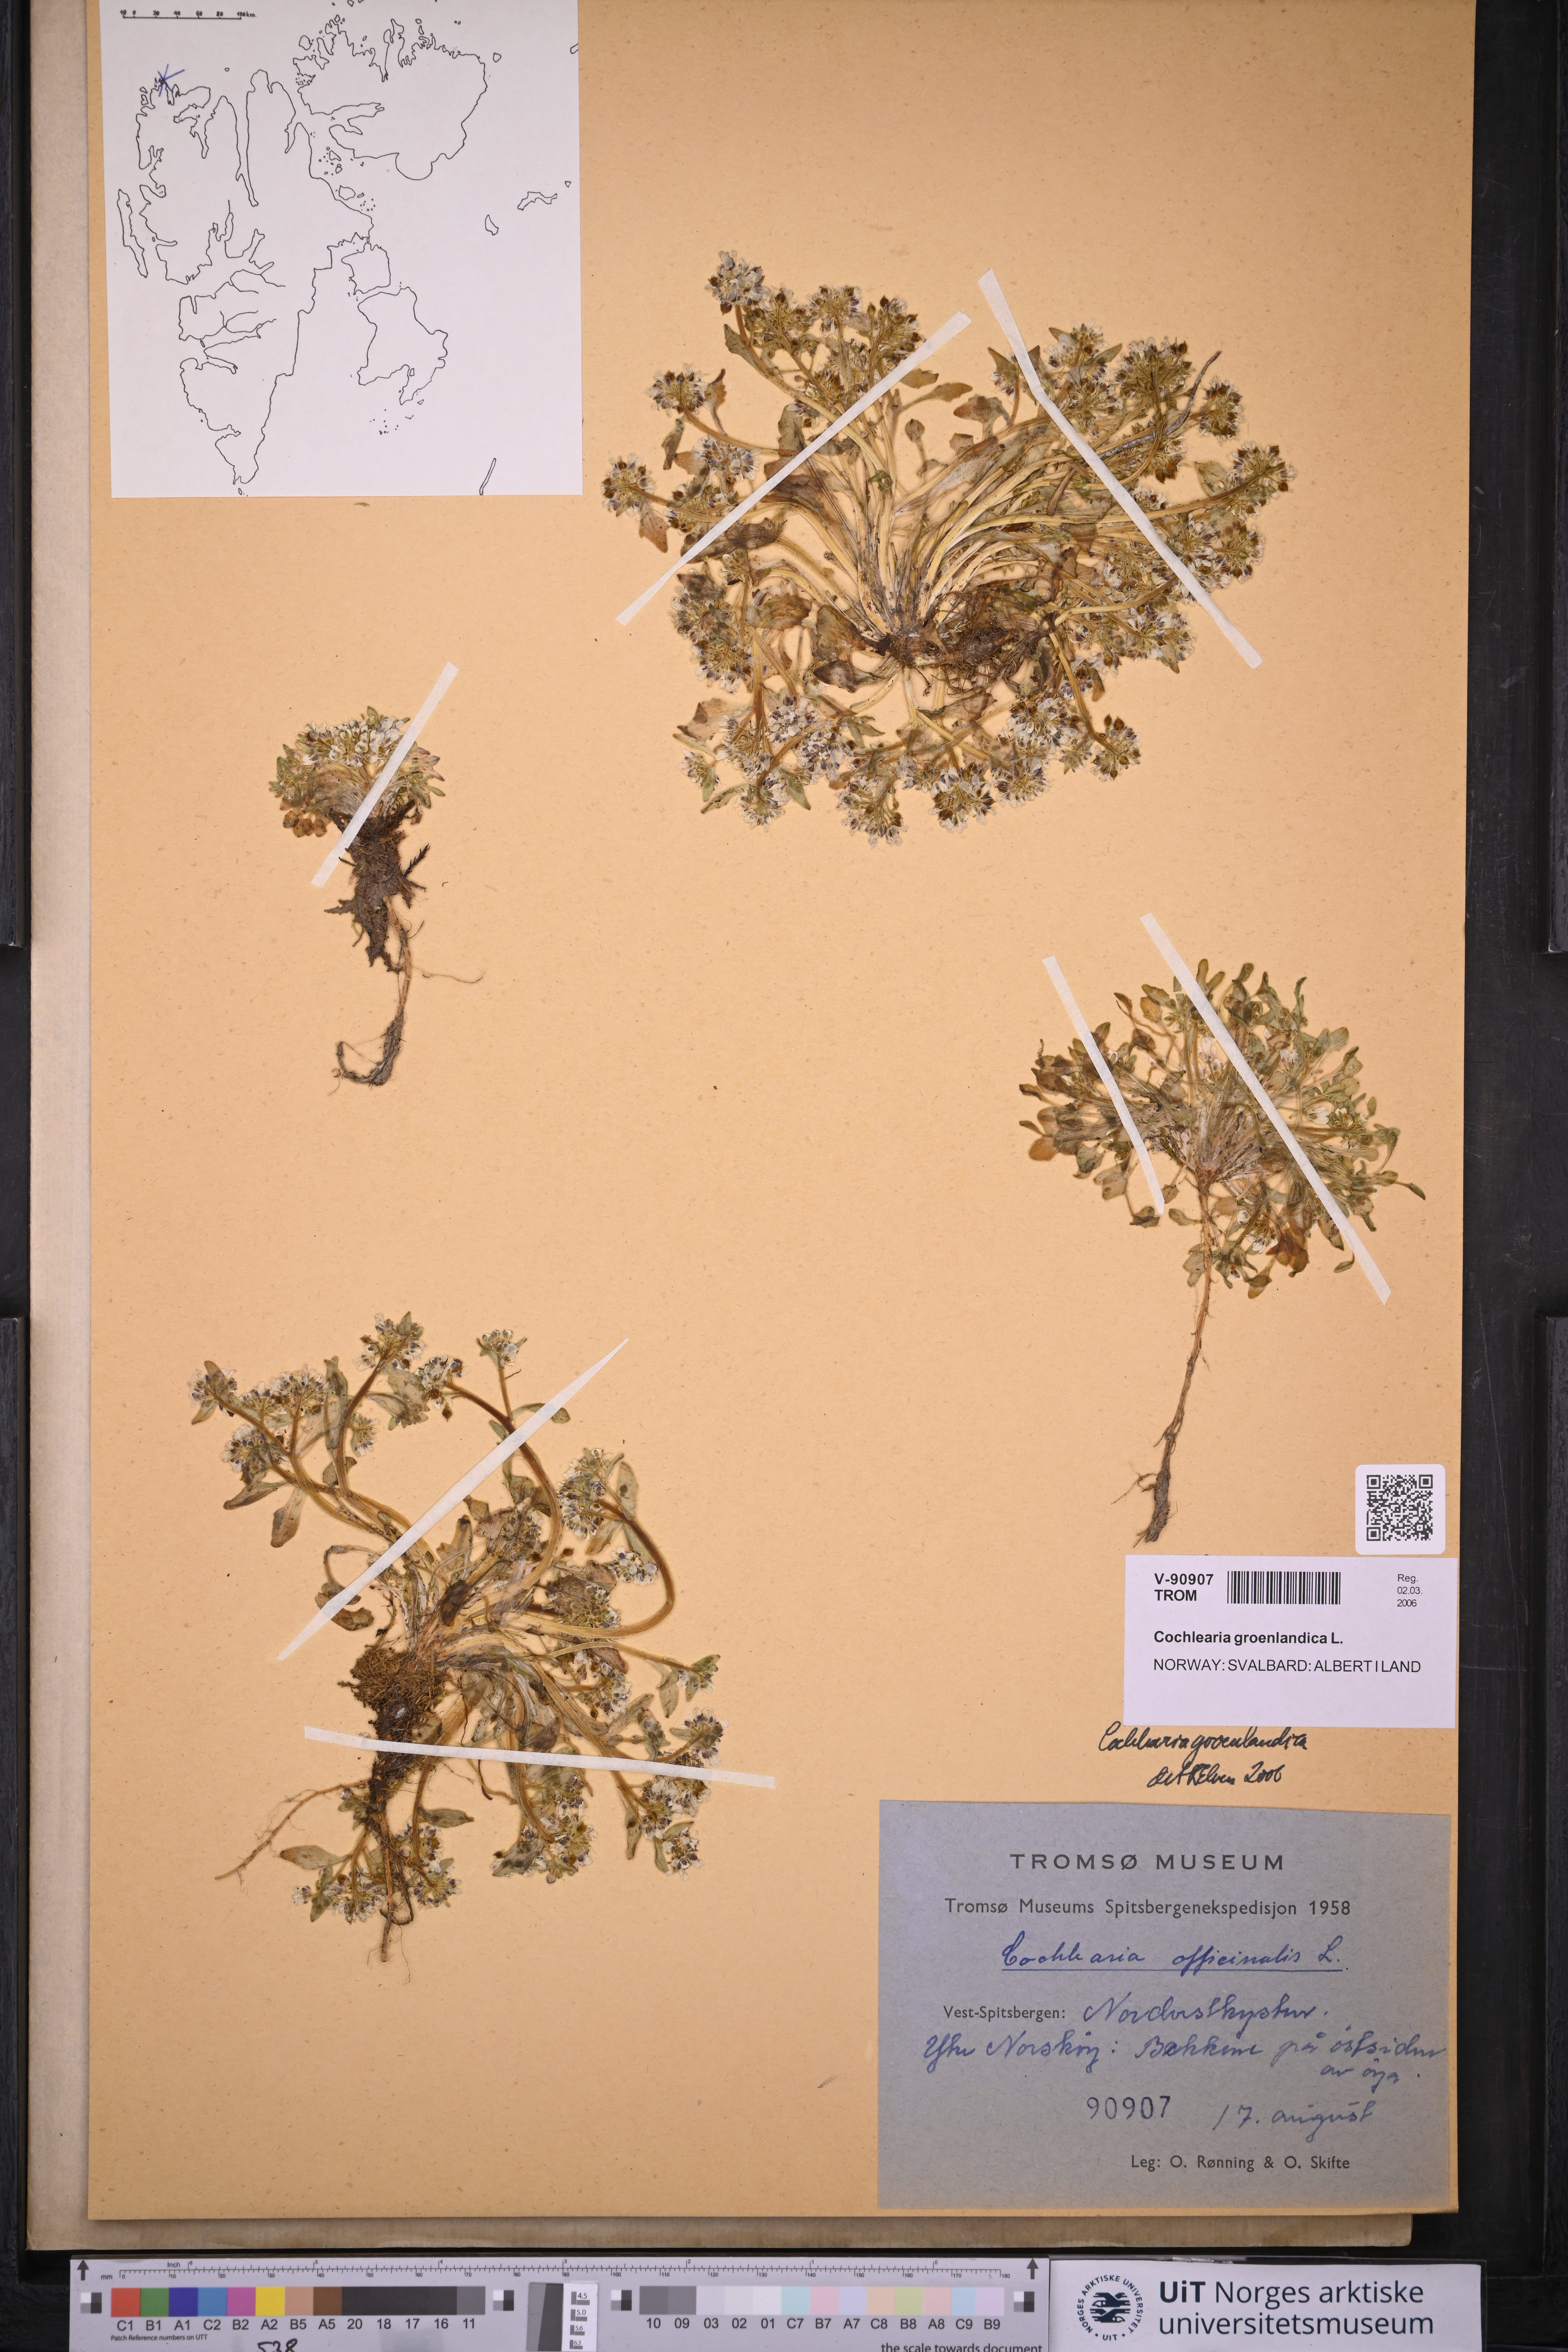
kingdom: Plantae
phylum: Tracheophyta
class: Magnoliopsida
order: Brassicales
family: Brassicaceae
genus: Cochlearia
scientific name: Cochlearia groenlandica
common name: Danish scurvygrass
